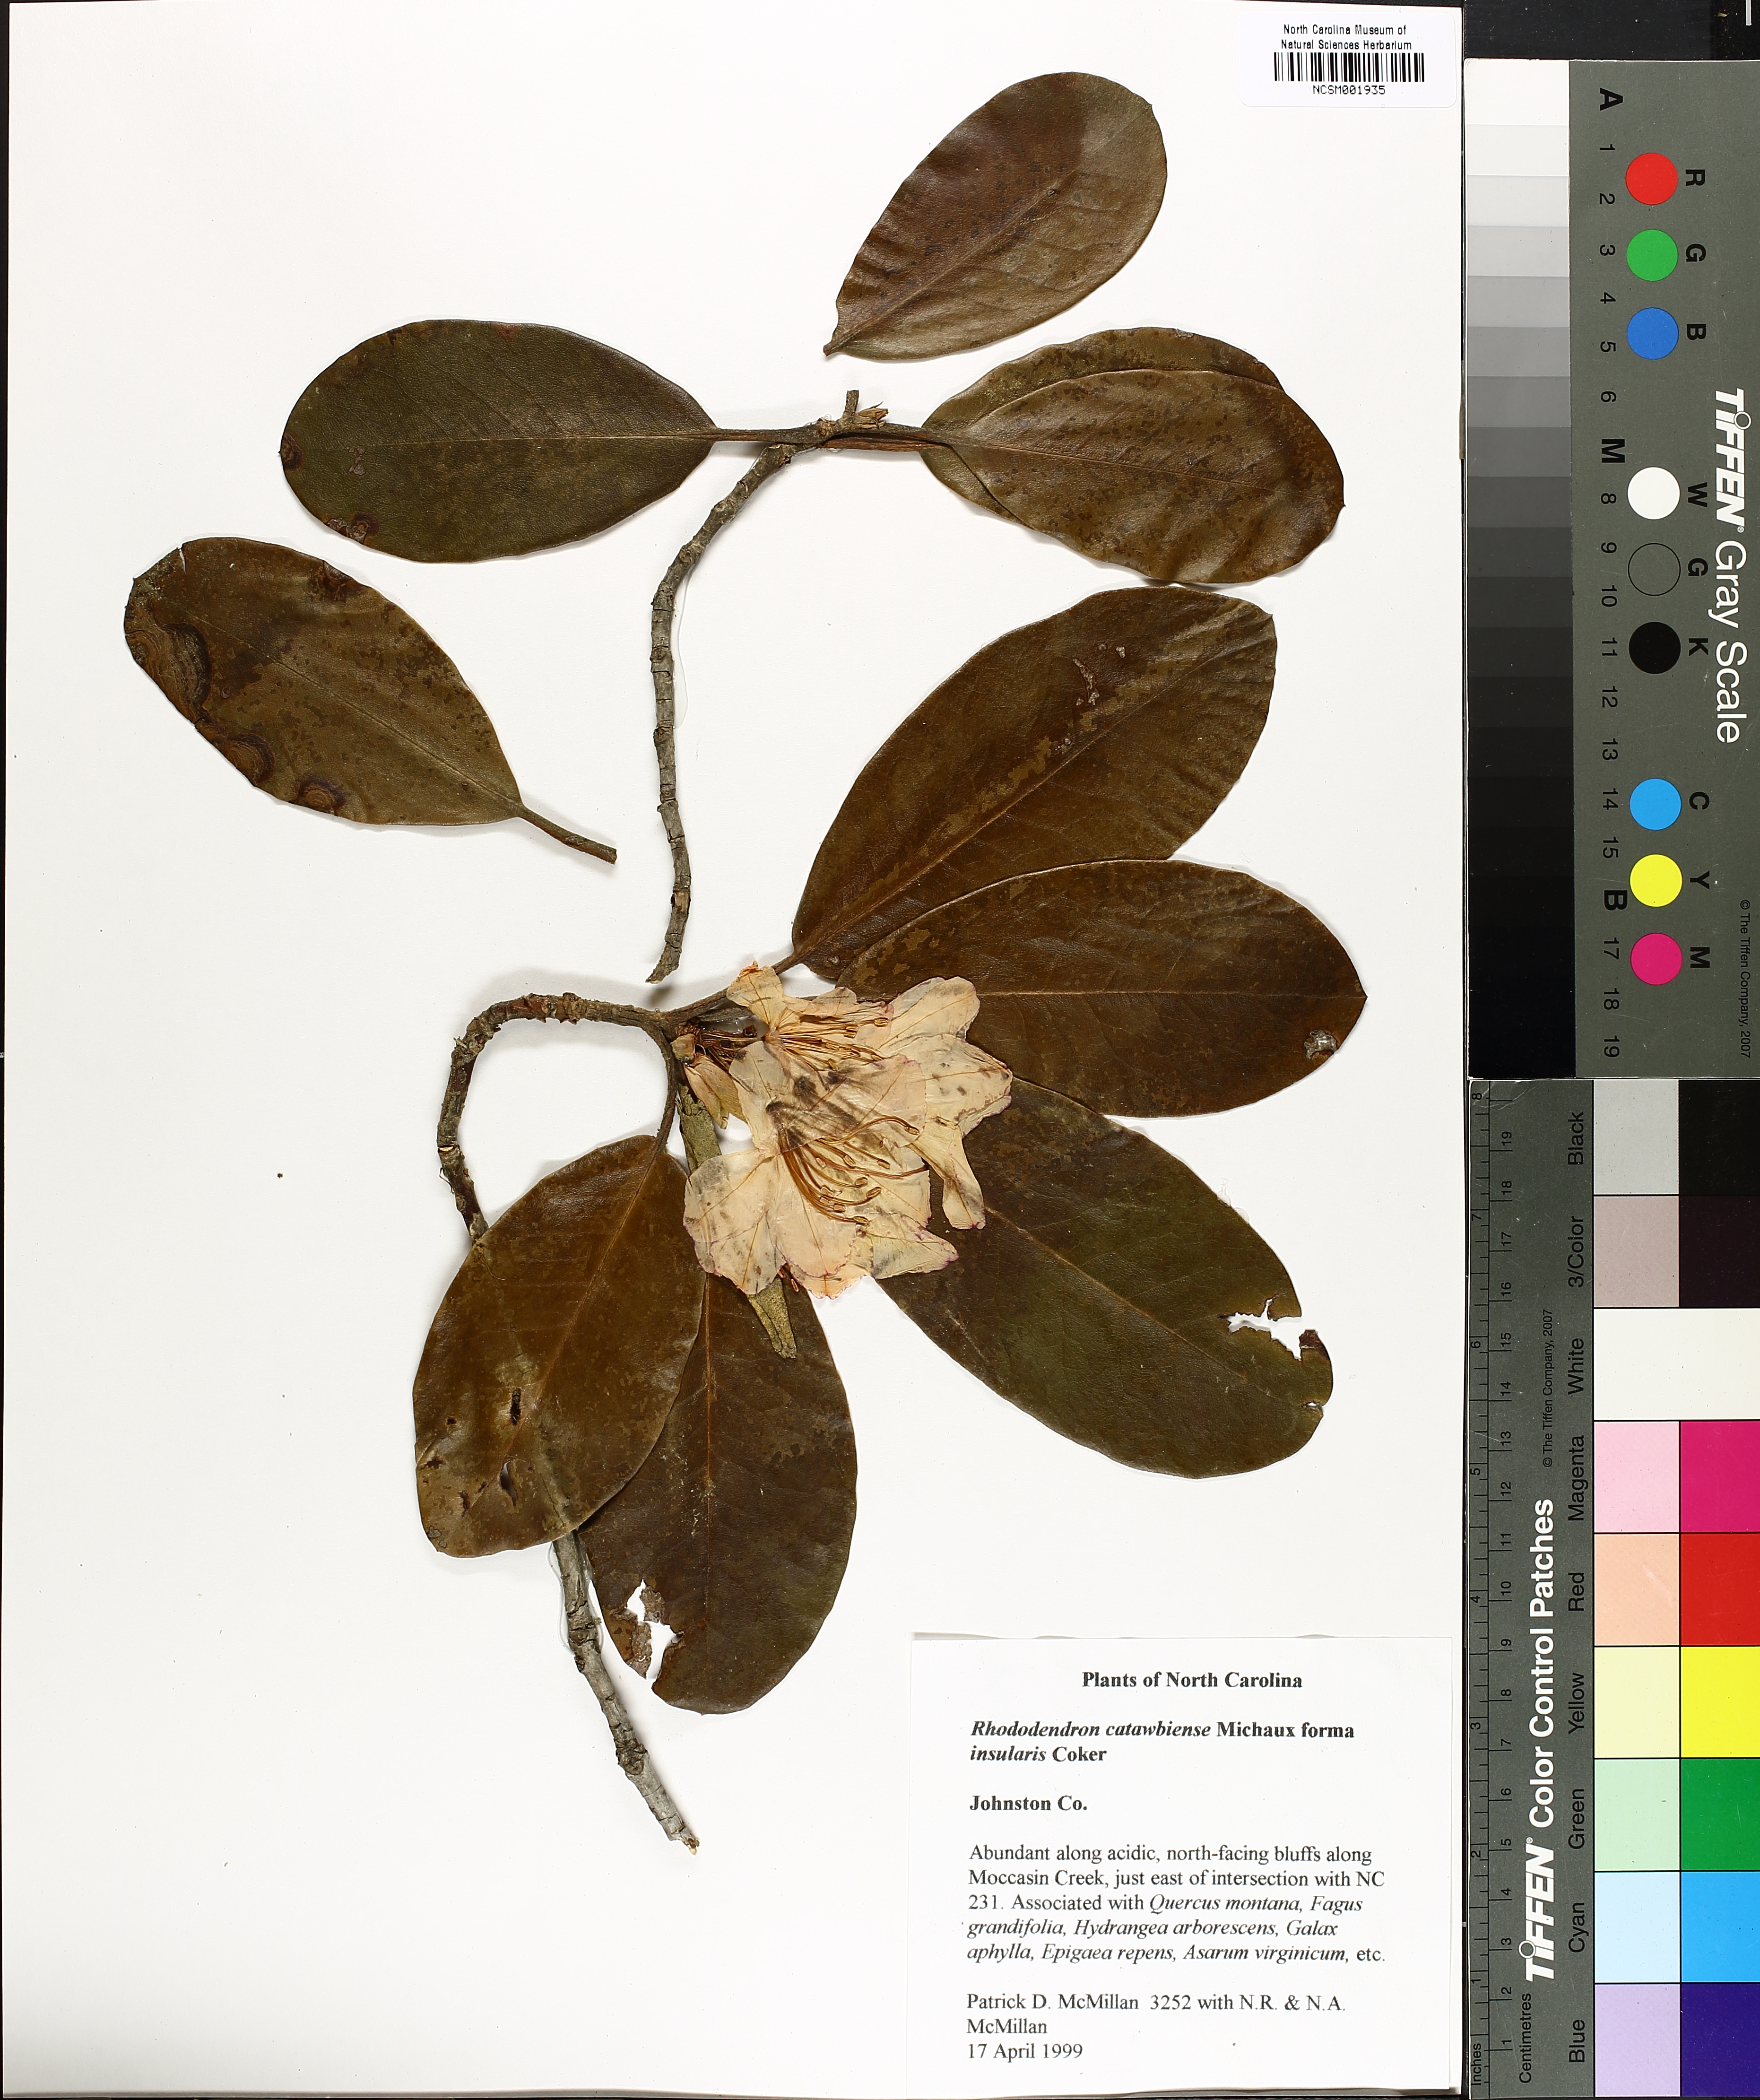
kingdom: Plantae
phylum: Tracheophyta
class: Magnoliopsida
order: Ericales
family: Ericaceae
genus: Rhododendron
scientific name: Rhododendron catawbiense
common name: Catawba rhododendron
